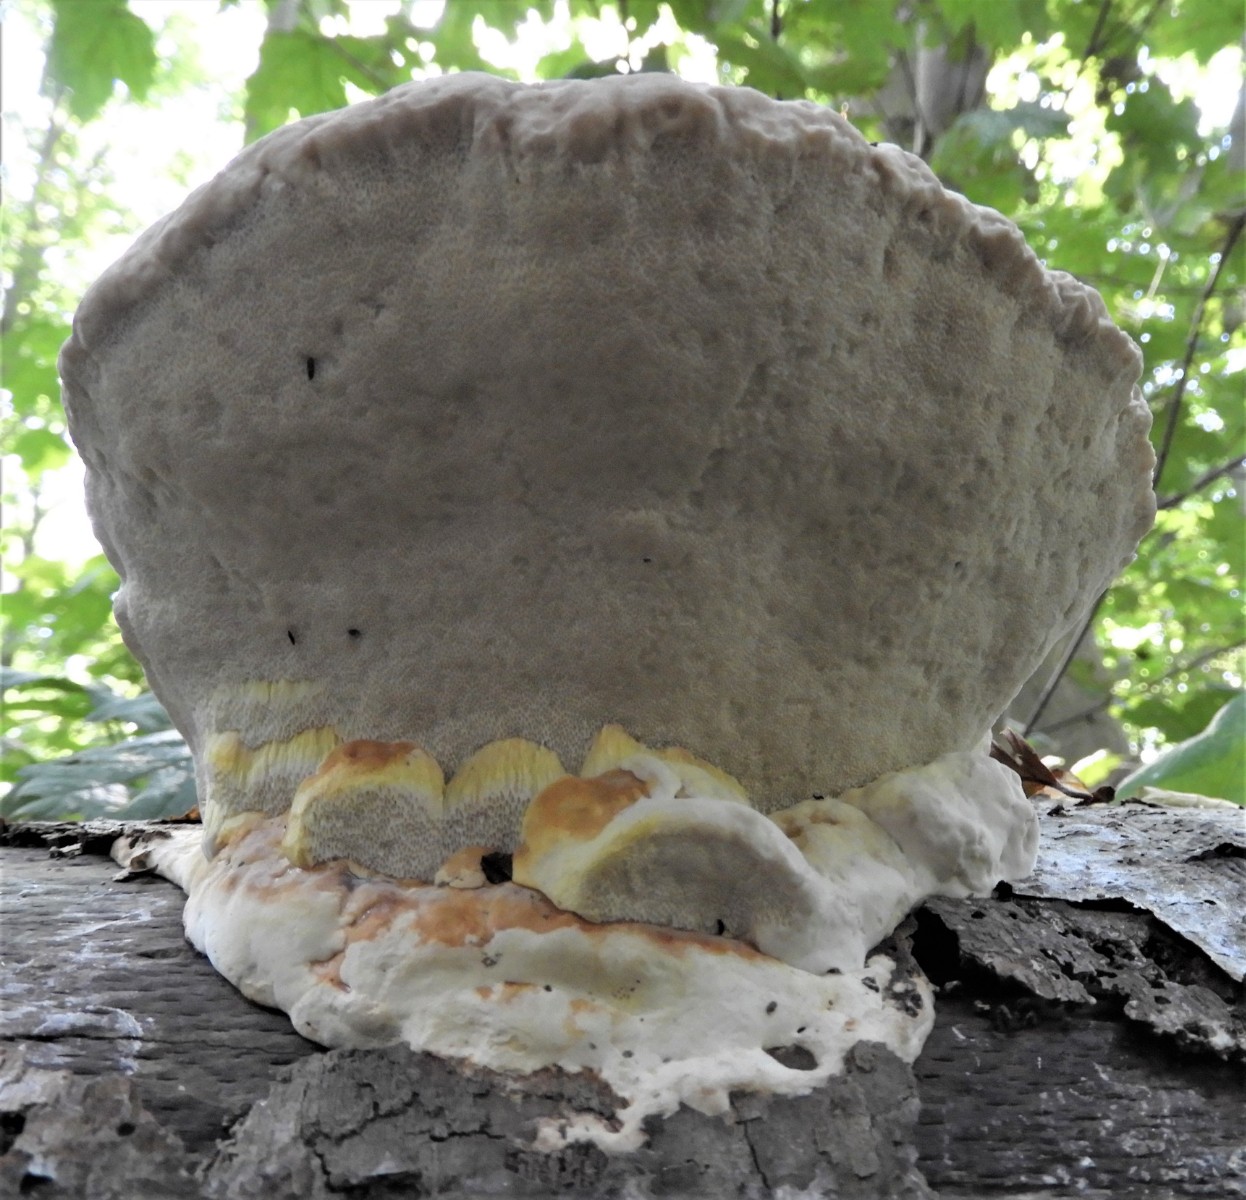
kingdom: Fungi
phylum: Basidiomycota
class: Agaricomycetes
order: Polyporales
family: Fomitopsidaceae
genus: Fomitopsis
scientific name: Fomitopsis pinicola
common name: randbæltet hovporesvamp
